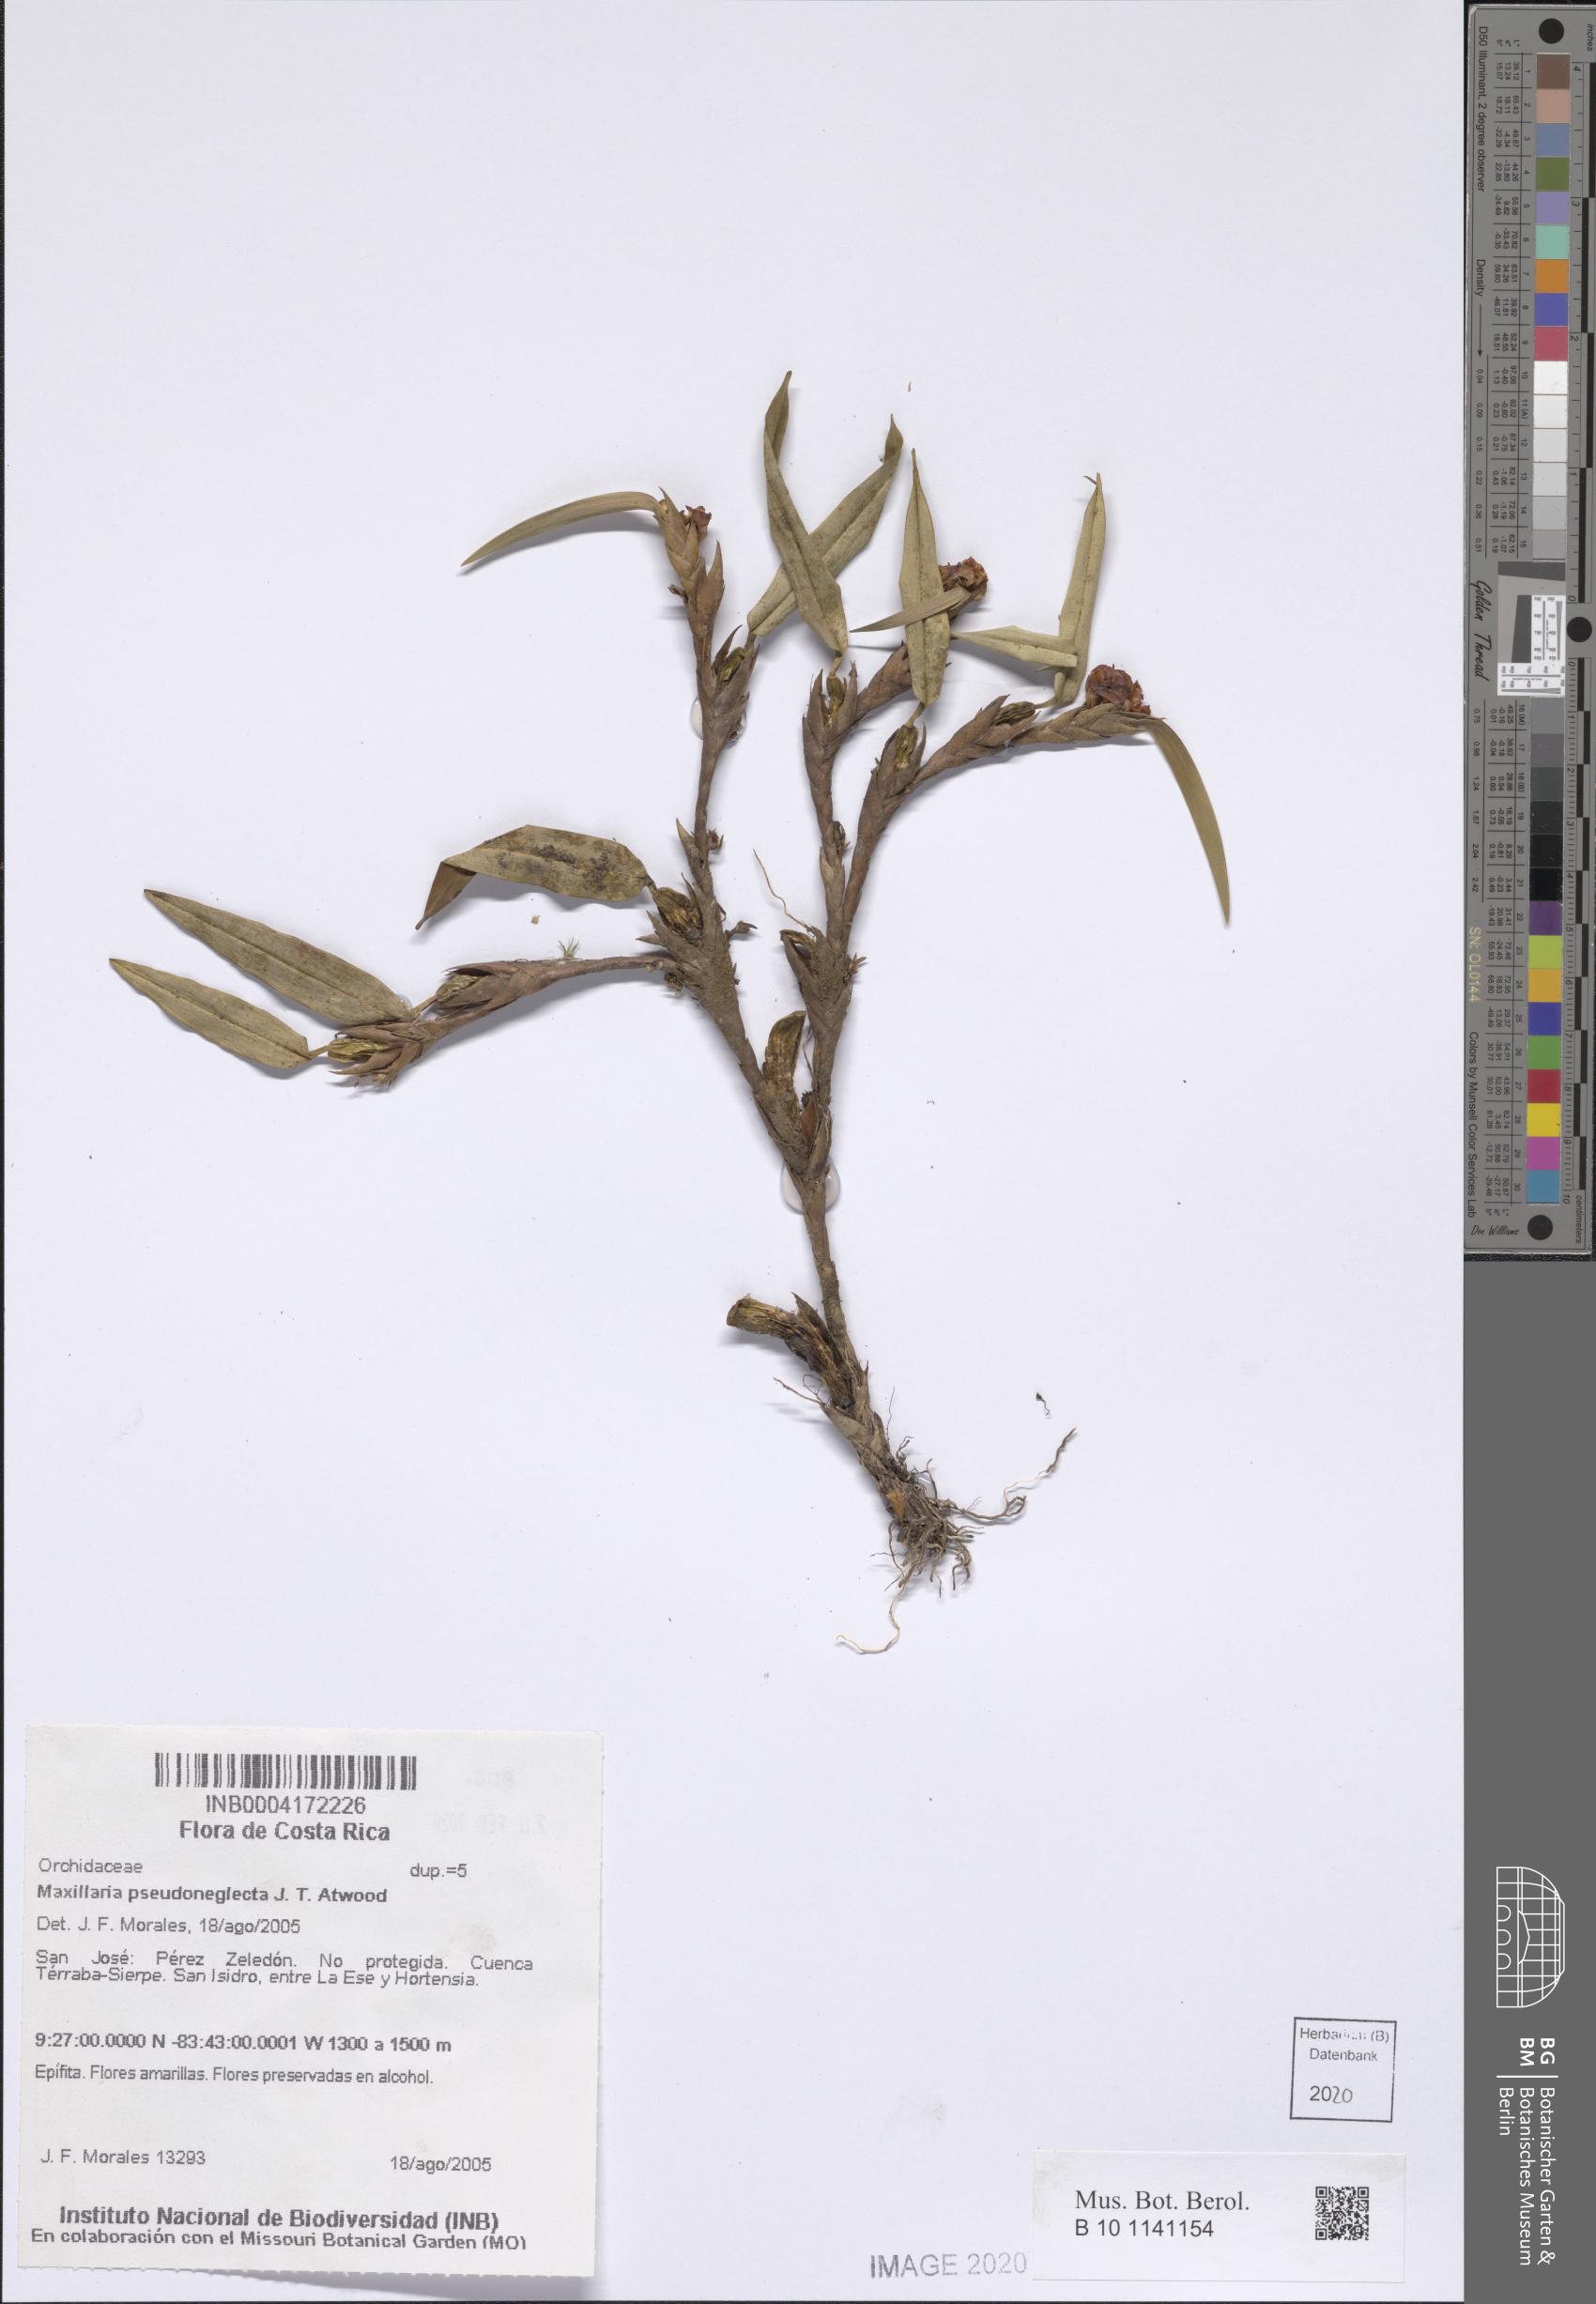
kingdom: Plantae
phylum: Tracheophyta
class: Liliopsida
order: Asparagales
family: Orchidaceae
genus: Maxillaria
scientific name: Maxillaria pseudoneglecta
